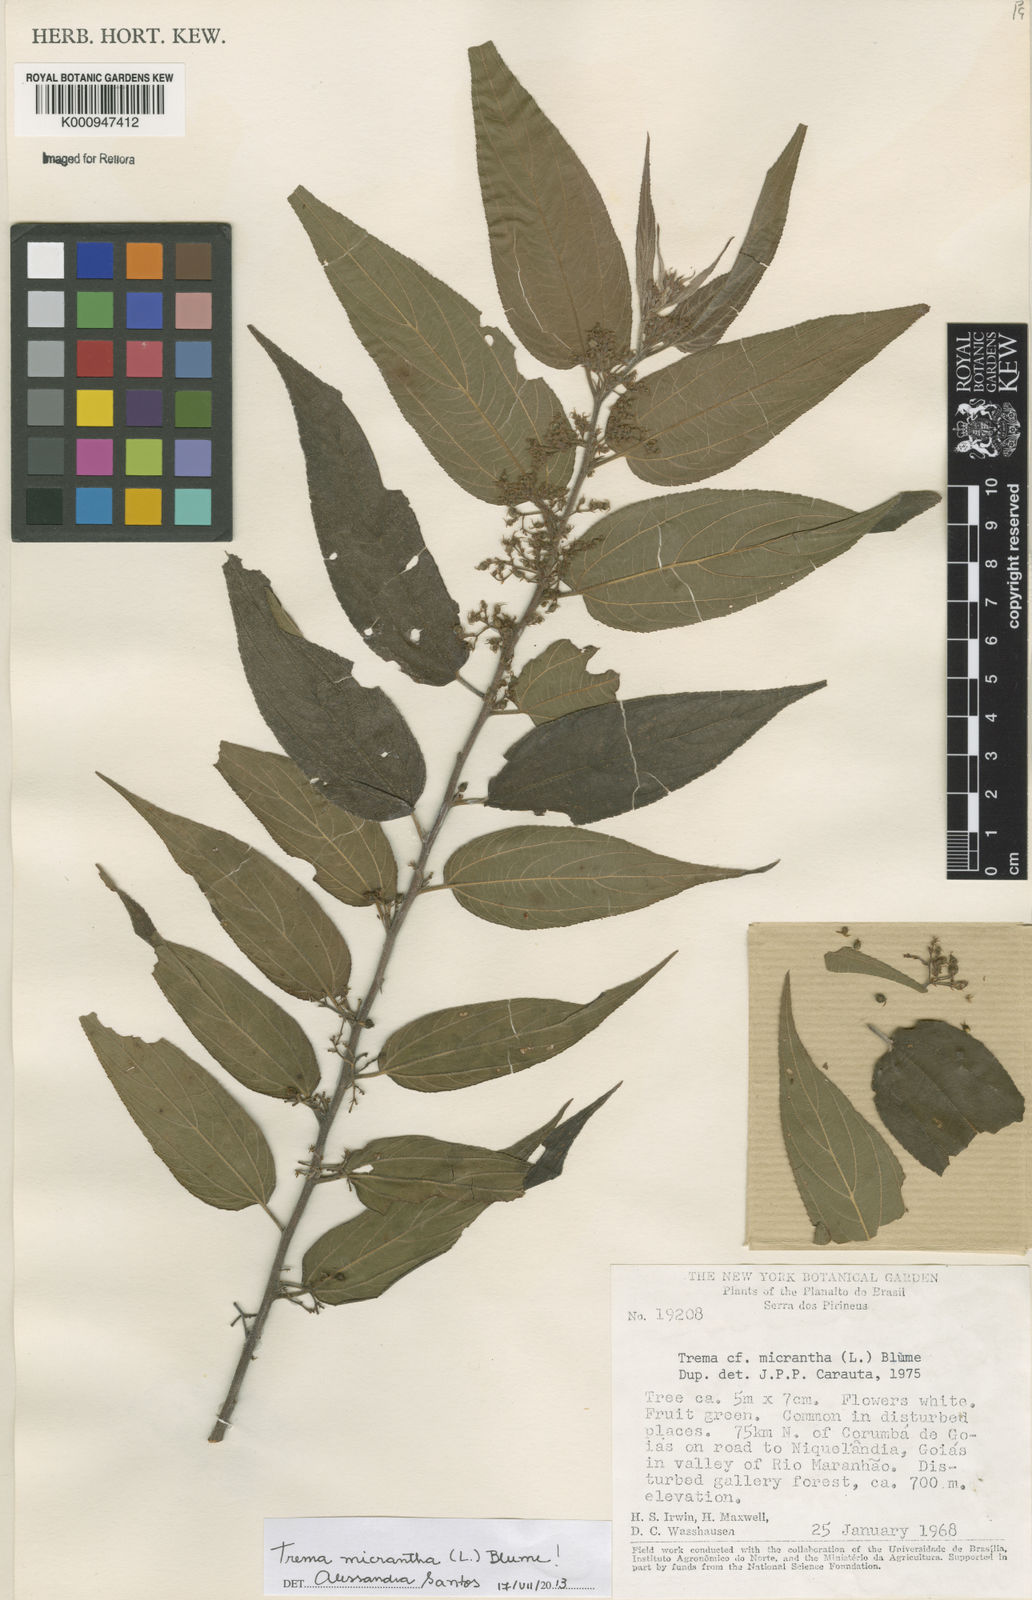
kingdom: Plantae
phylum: Tracheophyta
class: Magnoliopsida
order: Rosales
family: Cannabaceae
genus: Trema
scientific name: Trema micranthum
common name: Jamaican nettletree
